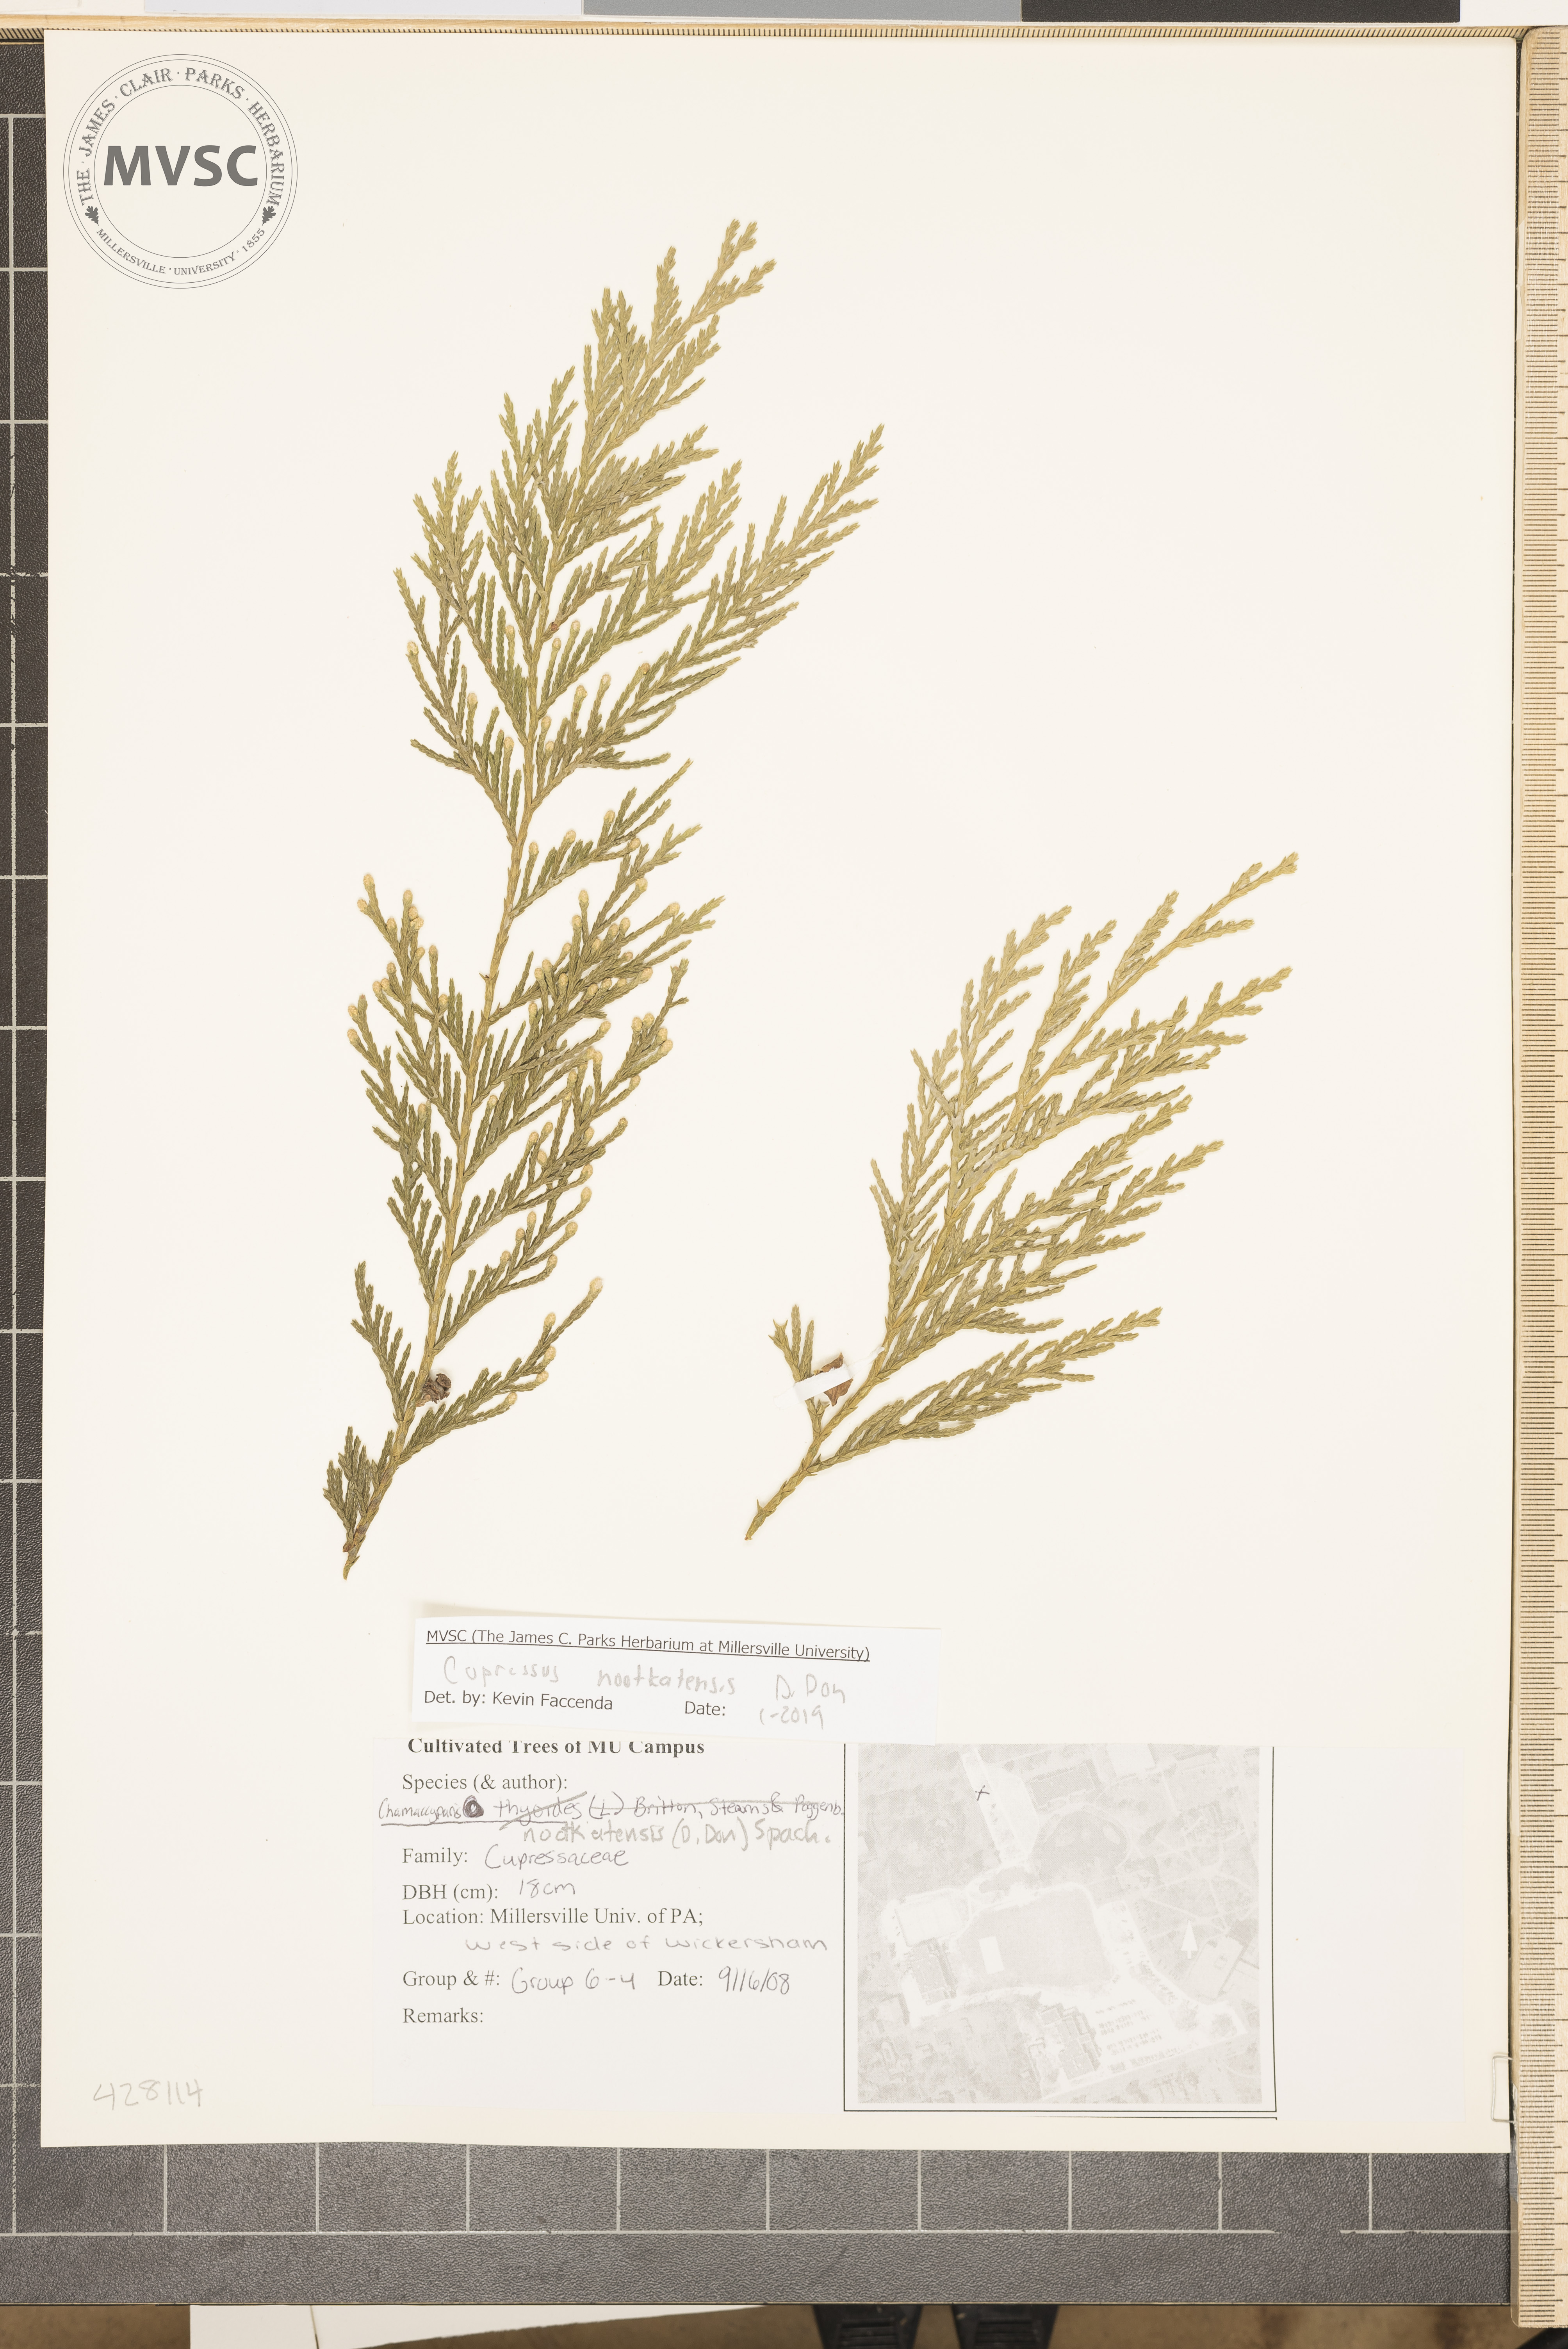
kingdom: Plantae
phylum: Tracheophyta
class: Pinopsida
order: Pinales
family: Cupressaceae
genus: Xanthocyparis
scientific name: Xanthocyparis nootkatensis
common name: Nootka cypress
